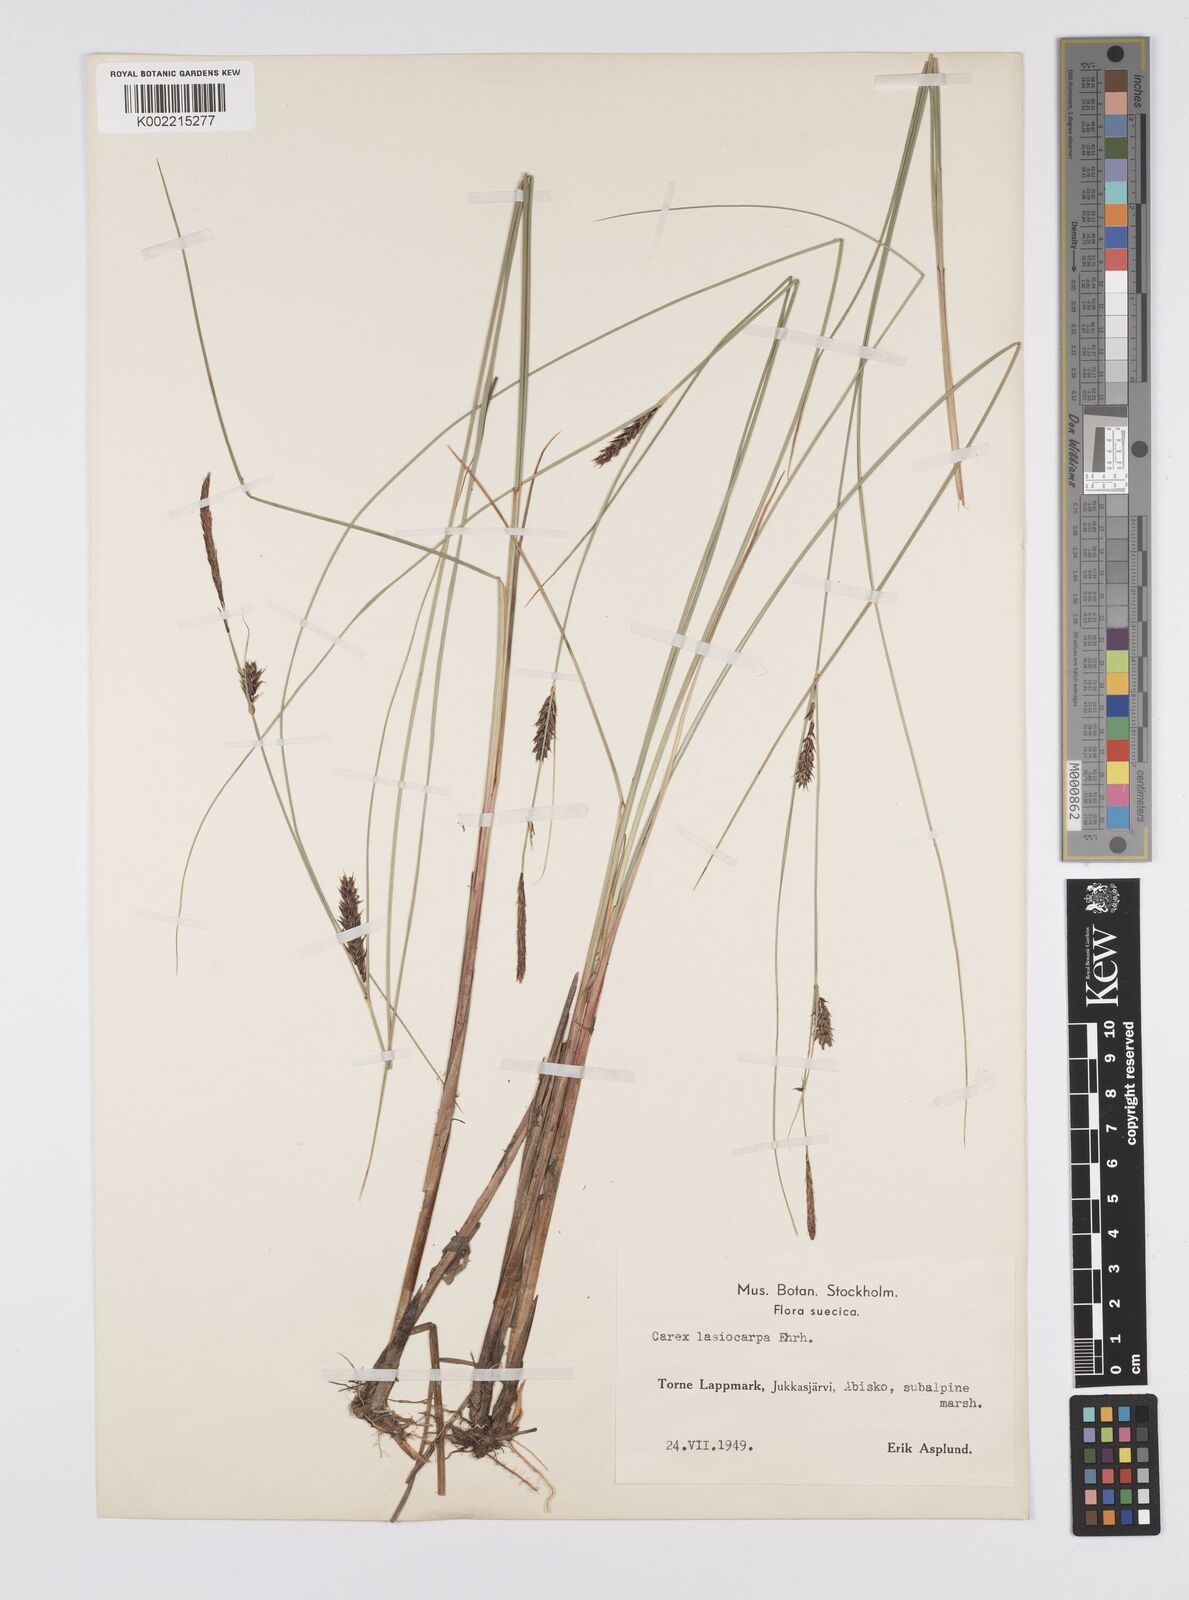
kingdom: Plantae
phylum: Tracheophyta
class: Liliopsida
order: Poales
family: Cyperaceae
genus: Carex
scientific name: Carex lasiocarpa
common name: Slender sedge
